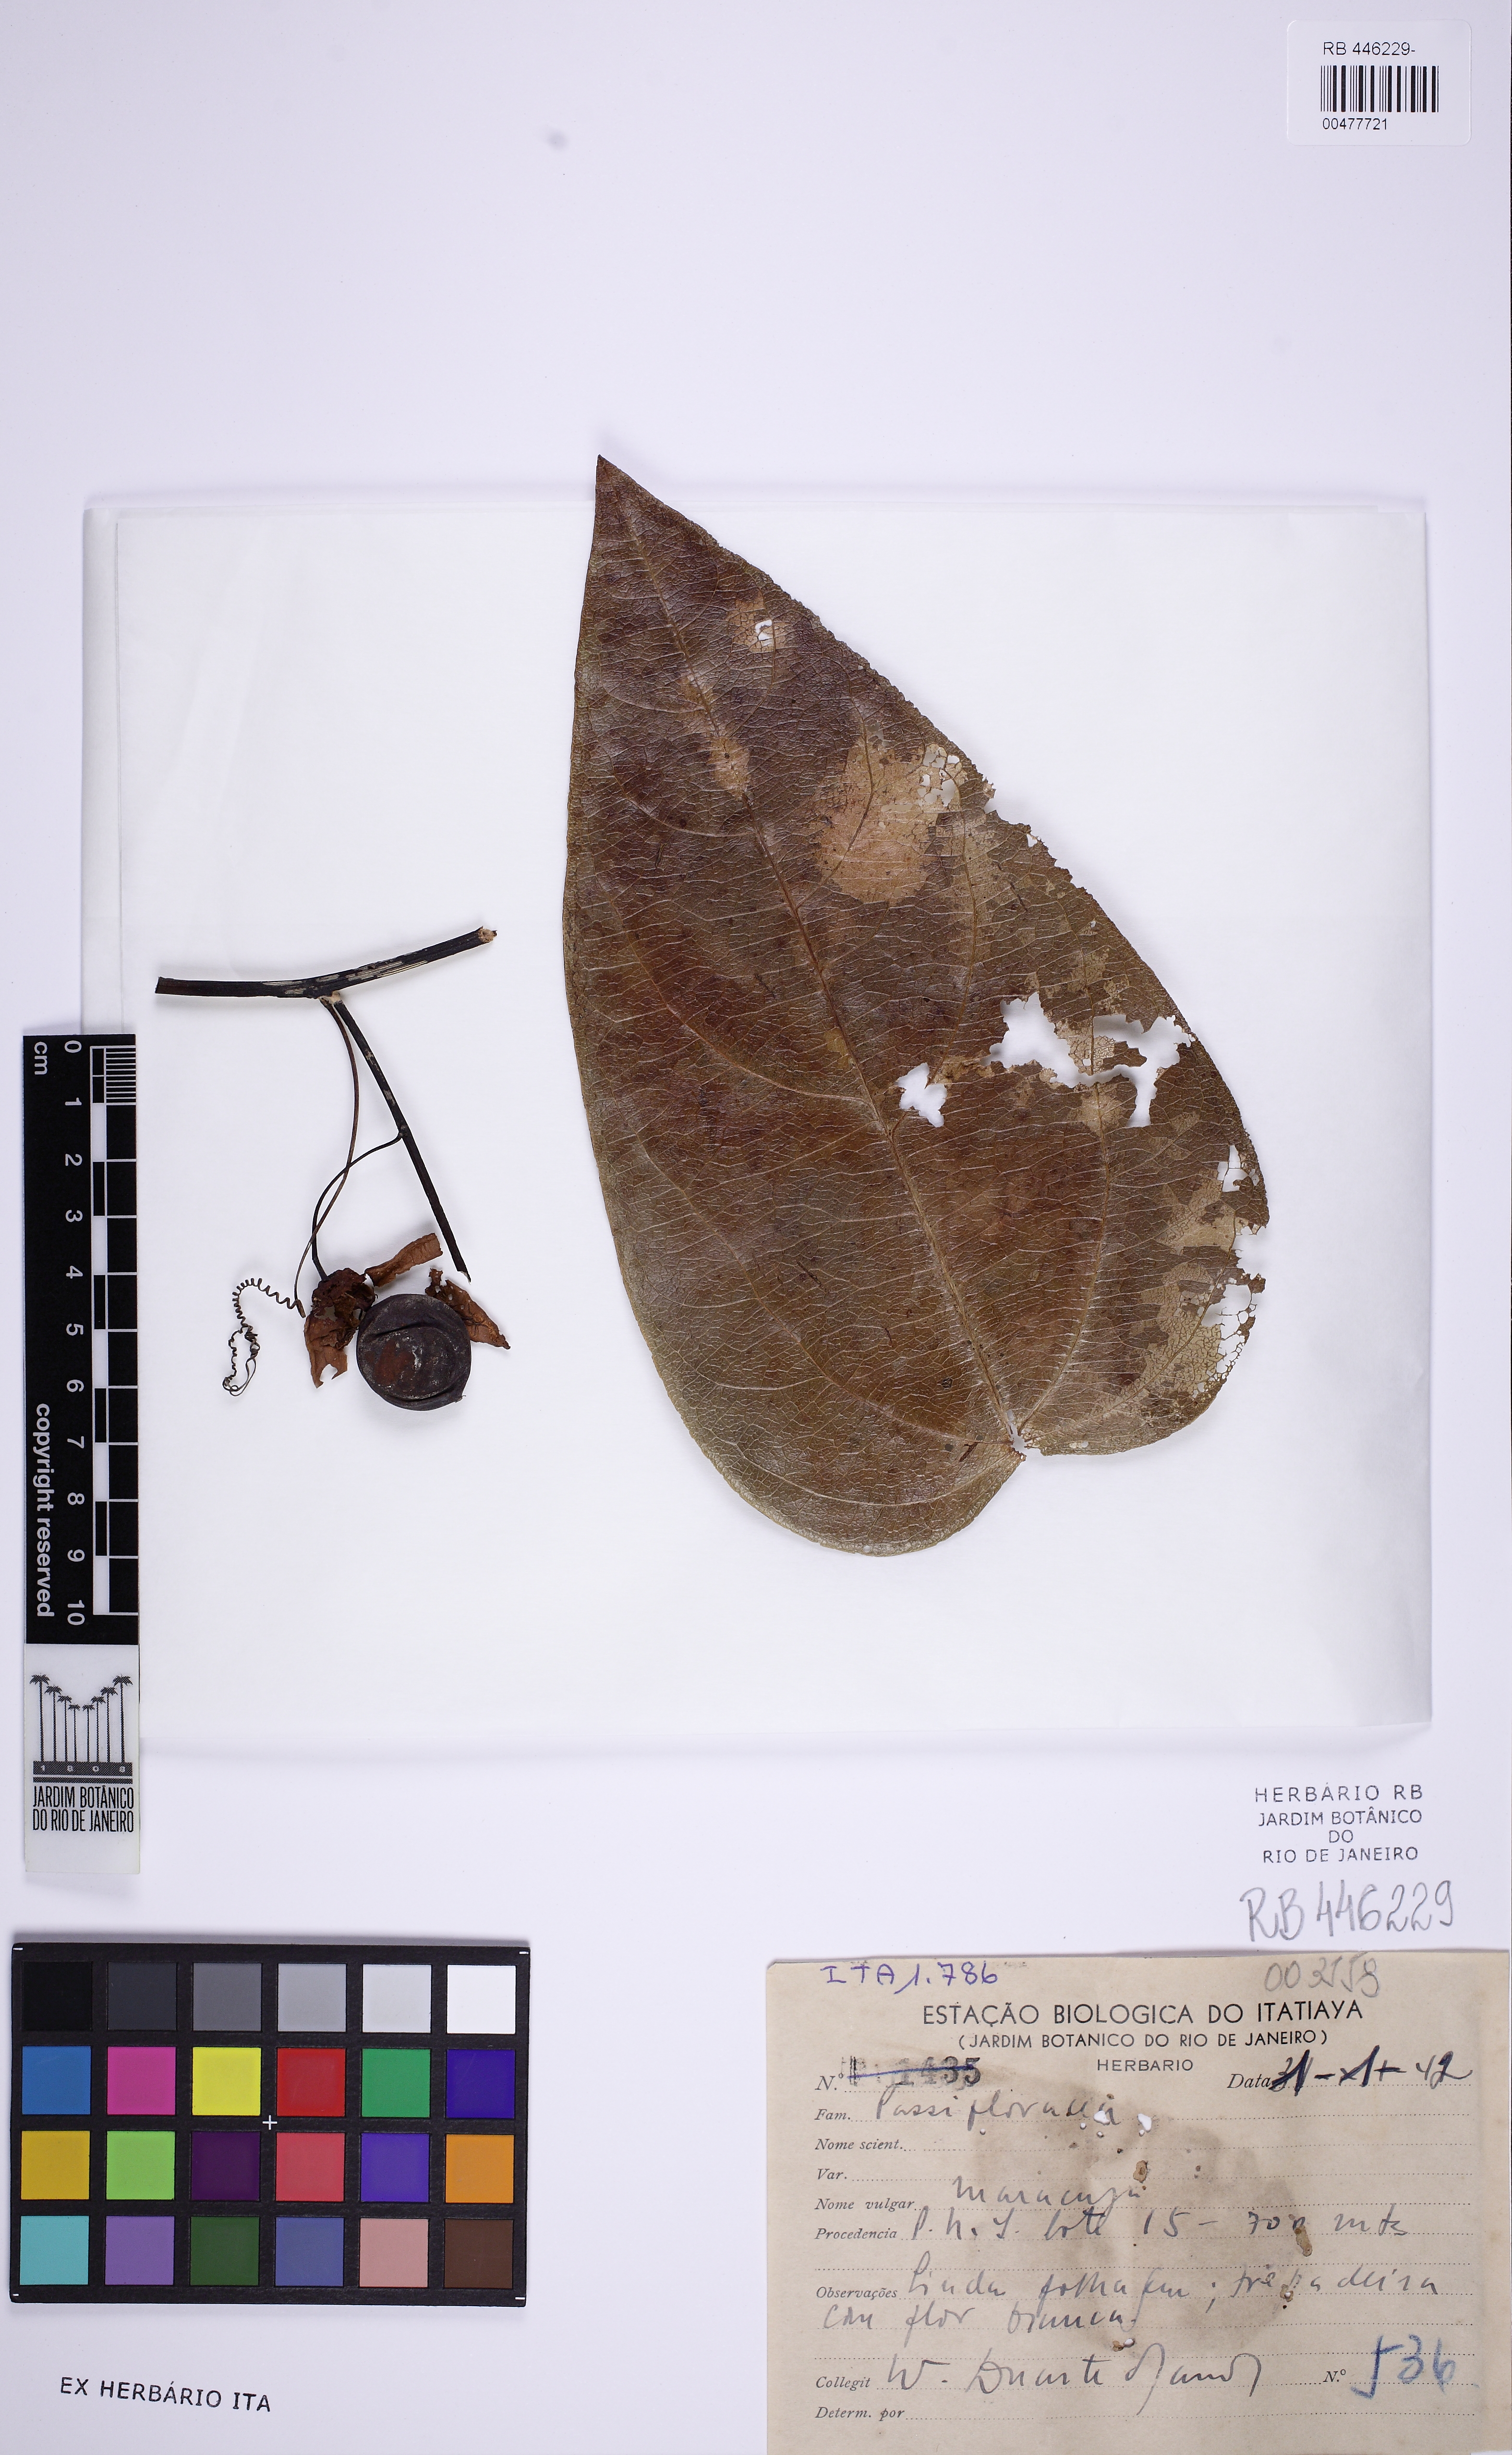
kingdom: Plantae
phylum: Tracheophyta
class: Magnoliopsida
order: Malpighiales
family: Passifloraceae
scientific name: Passifloraceae
